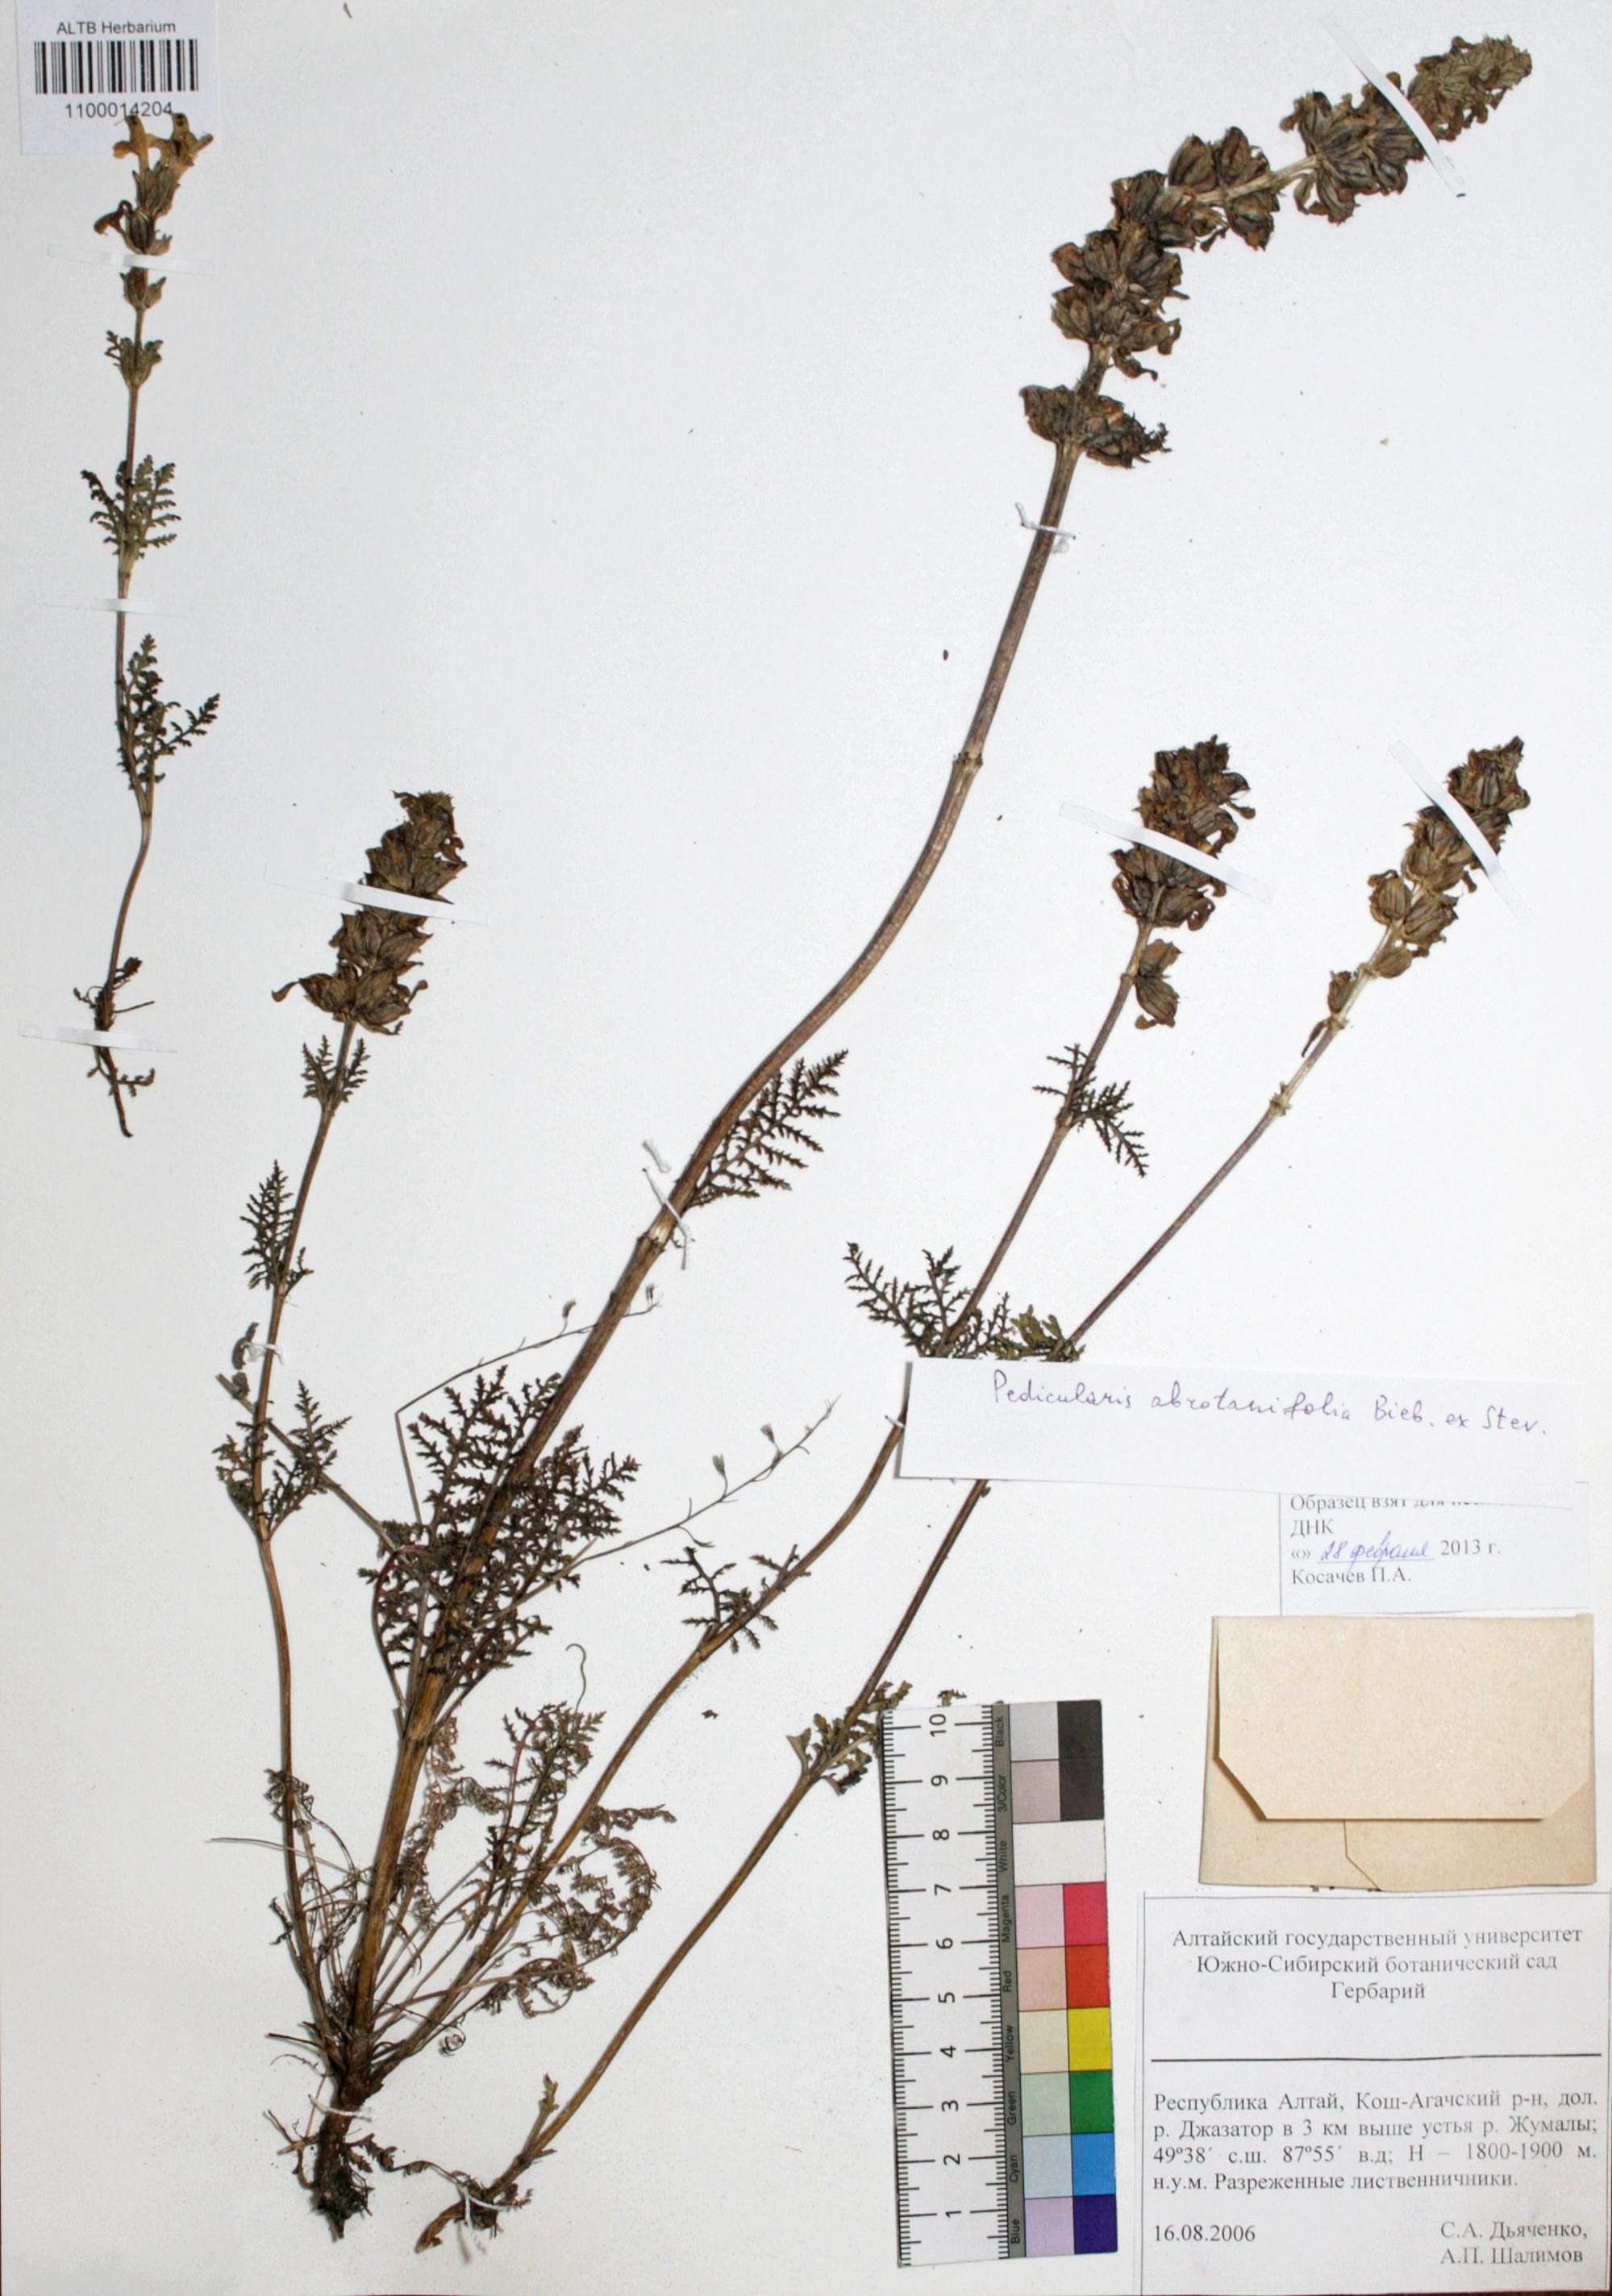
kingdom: Plantae
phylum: Tracheophyta
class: Magnoliopsida
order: Lamiales
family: Orobanchaceae
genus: Pedicularis
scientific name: Pedicularis abrotanifolia
